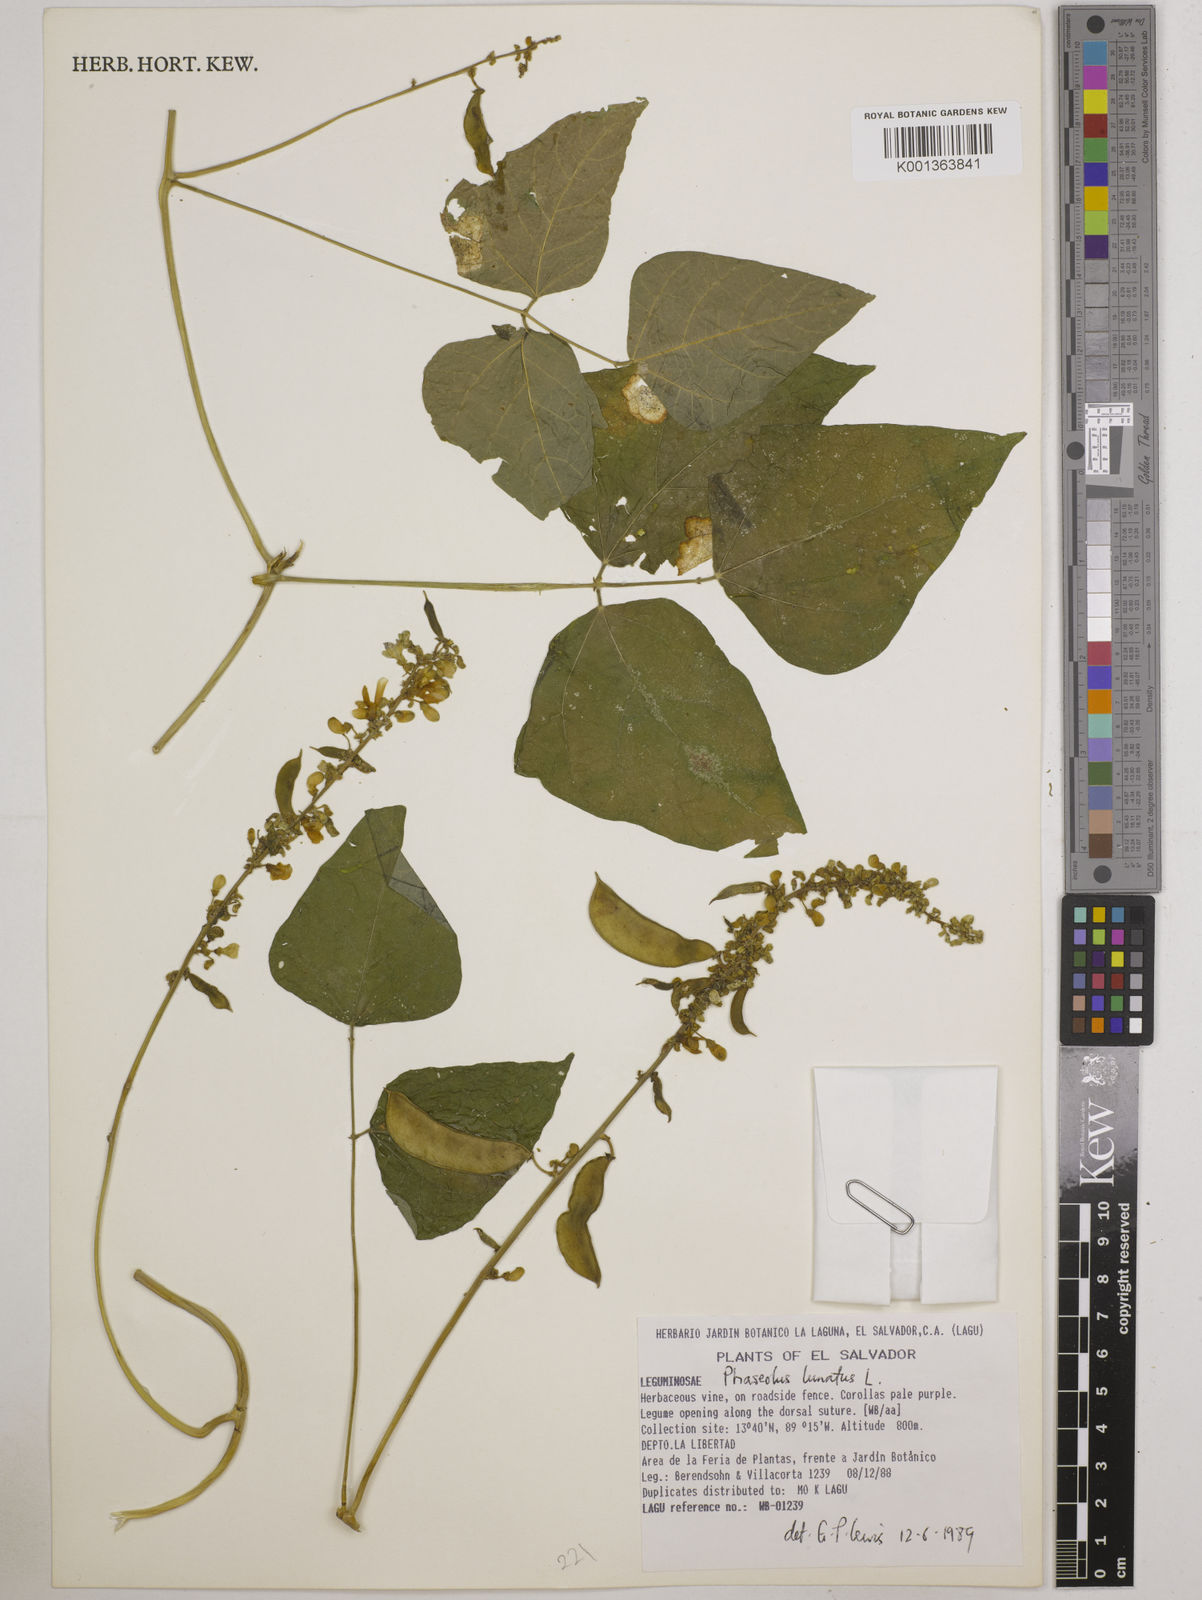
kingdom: Plantae
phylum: Tracheophyta
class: Magnoliopsida
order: Fabales
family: Fabaceae
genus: Phaseolus
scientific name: Phaseolus lunatus
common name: Sieva bean
